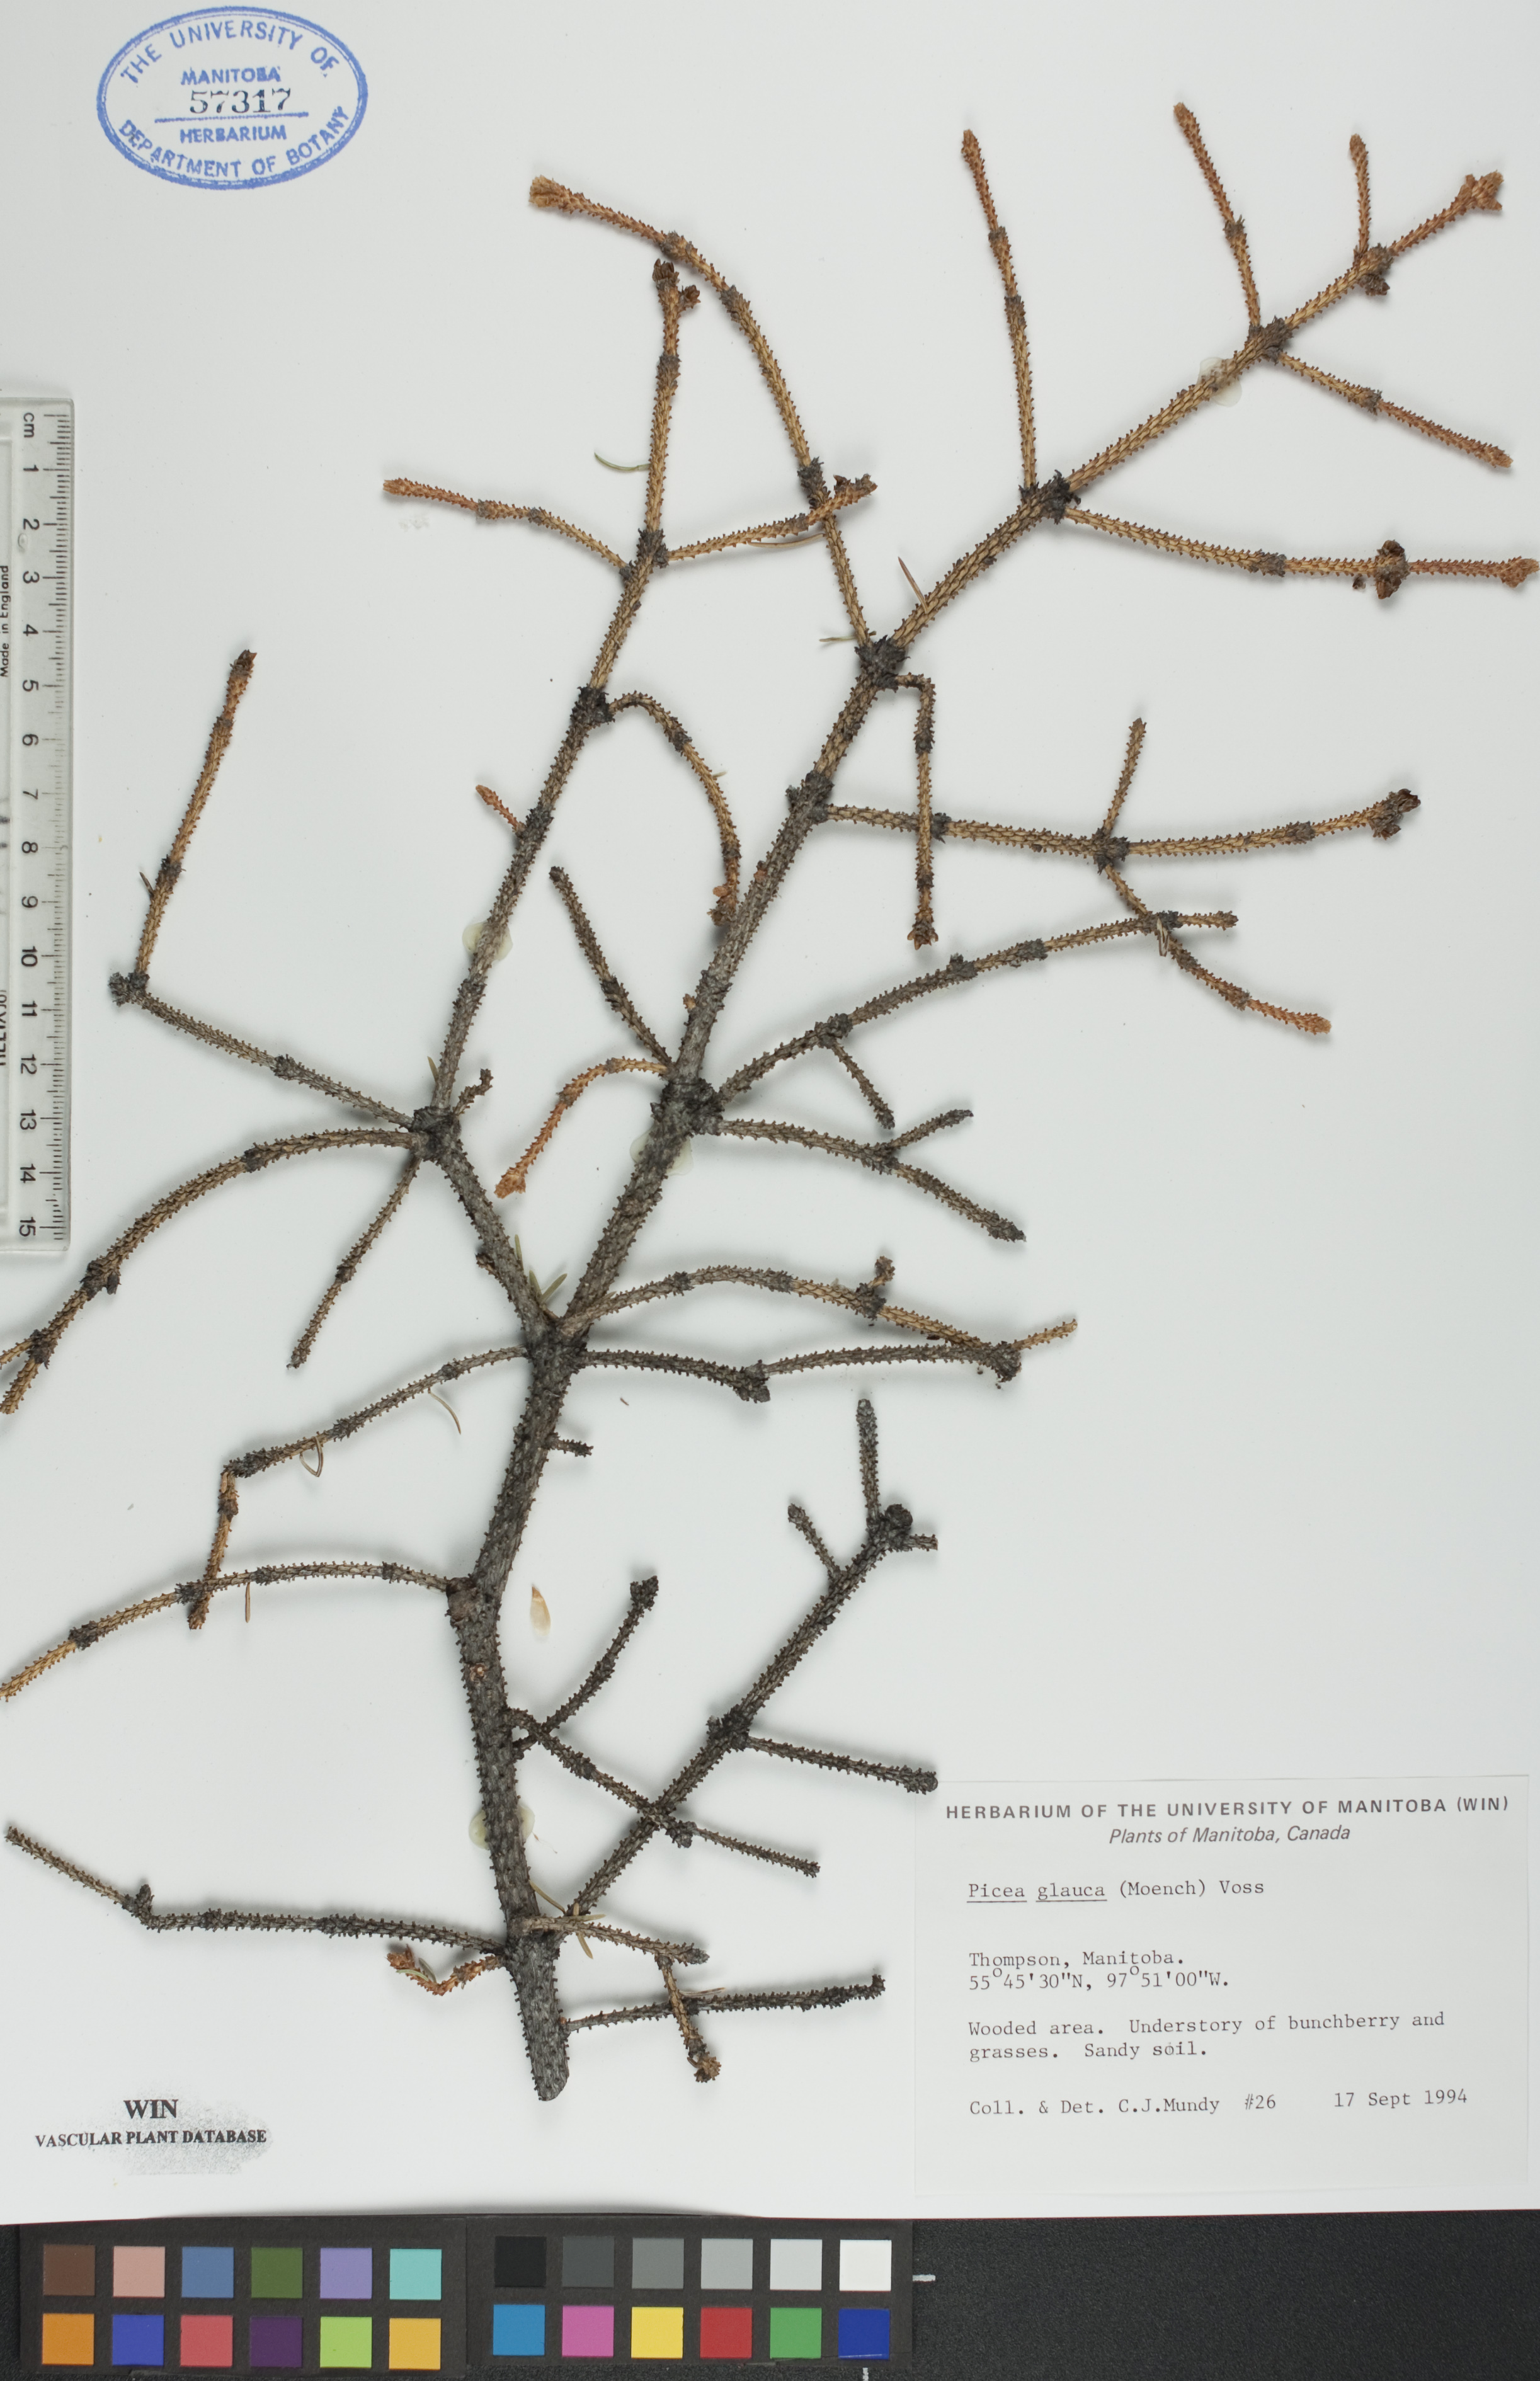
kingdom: Plantae
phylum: Tracheophyta
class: Pinopsida
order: Pinales
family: Pinaceae
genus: Picea
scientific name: Picea glauca
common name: White spruce
